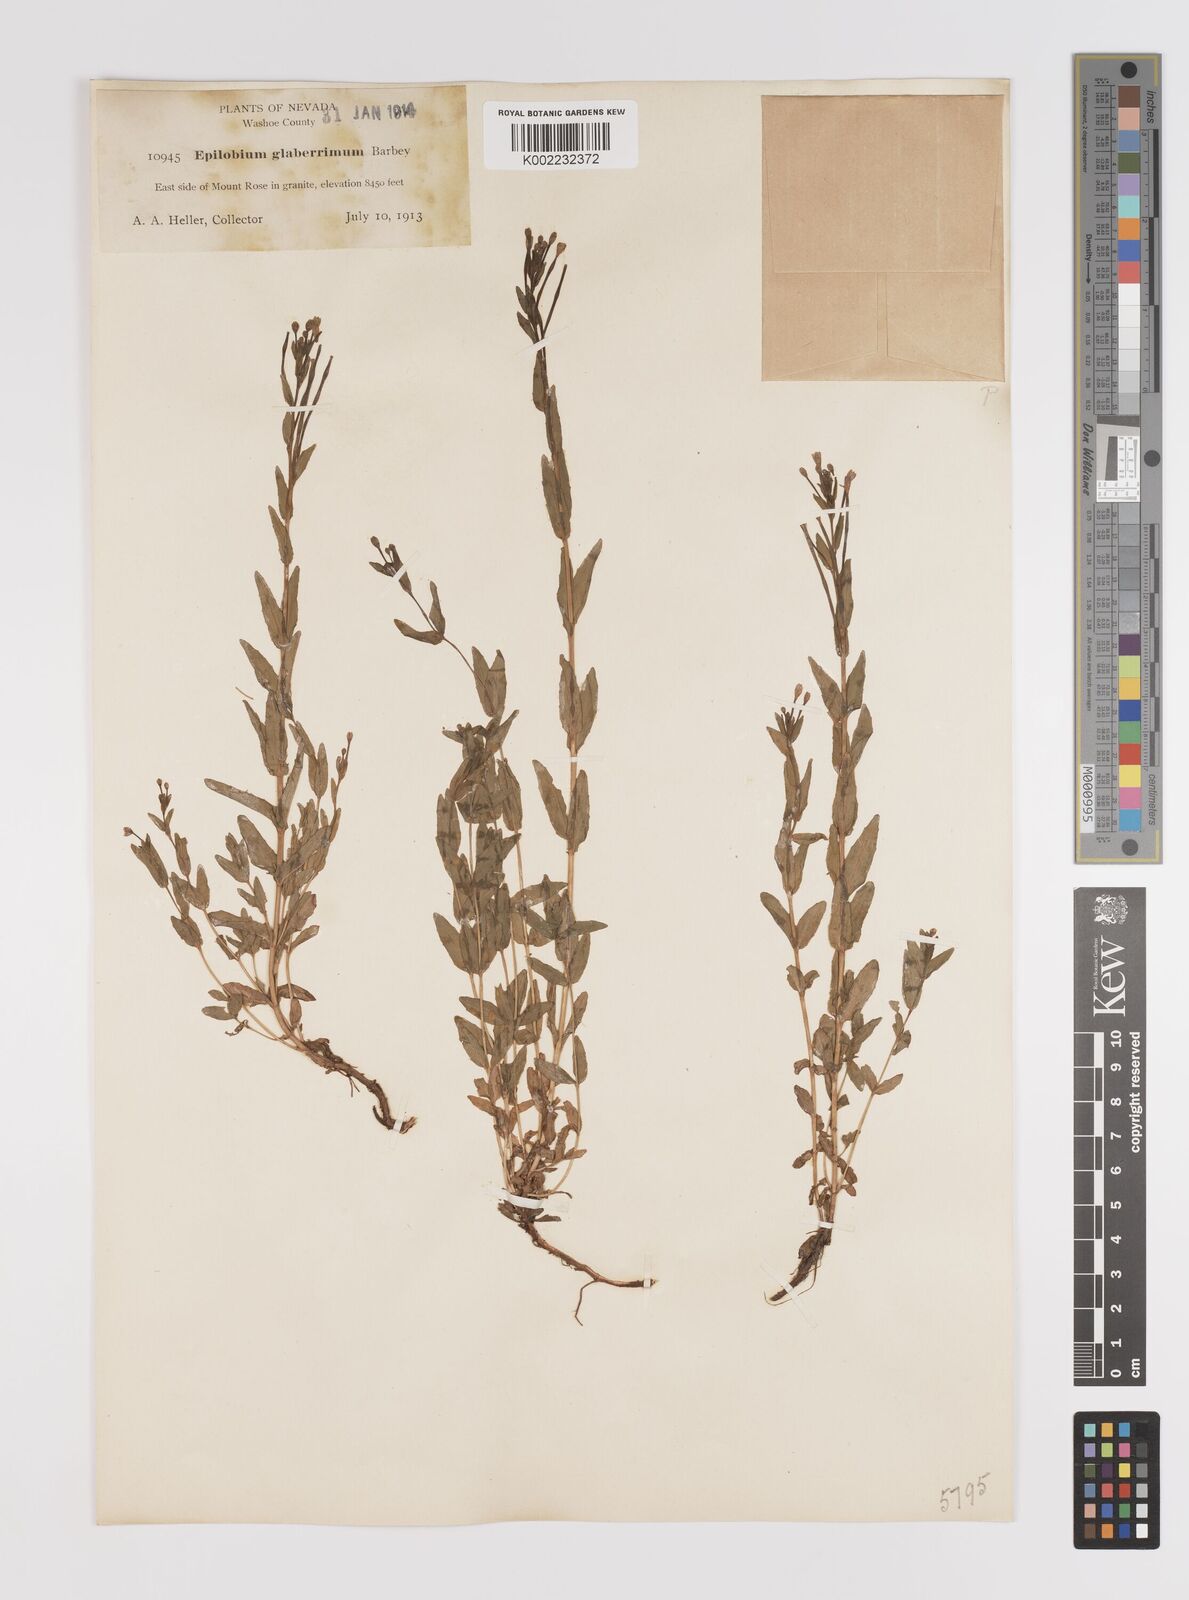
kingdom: Plantae
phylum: Tracheophyta
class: Magnoliopsida
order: Myrtales
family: Onagraceae
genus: Epilobium
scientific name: Epilobium glaberrimum
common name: Glaucous willowherb
